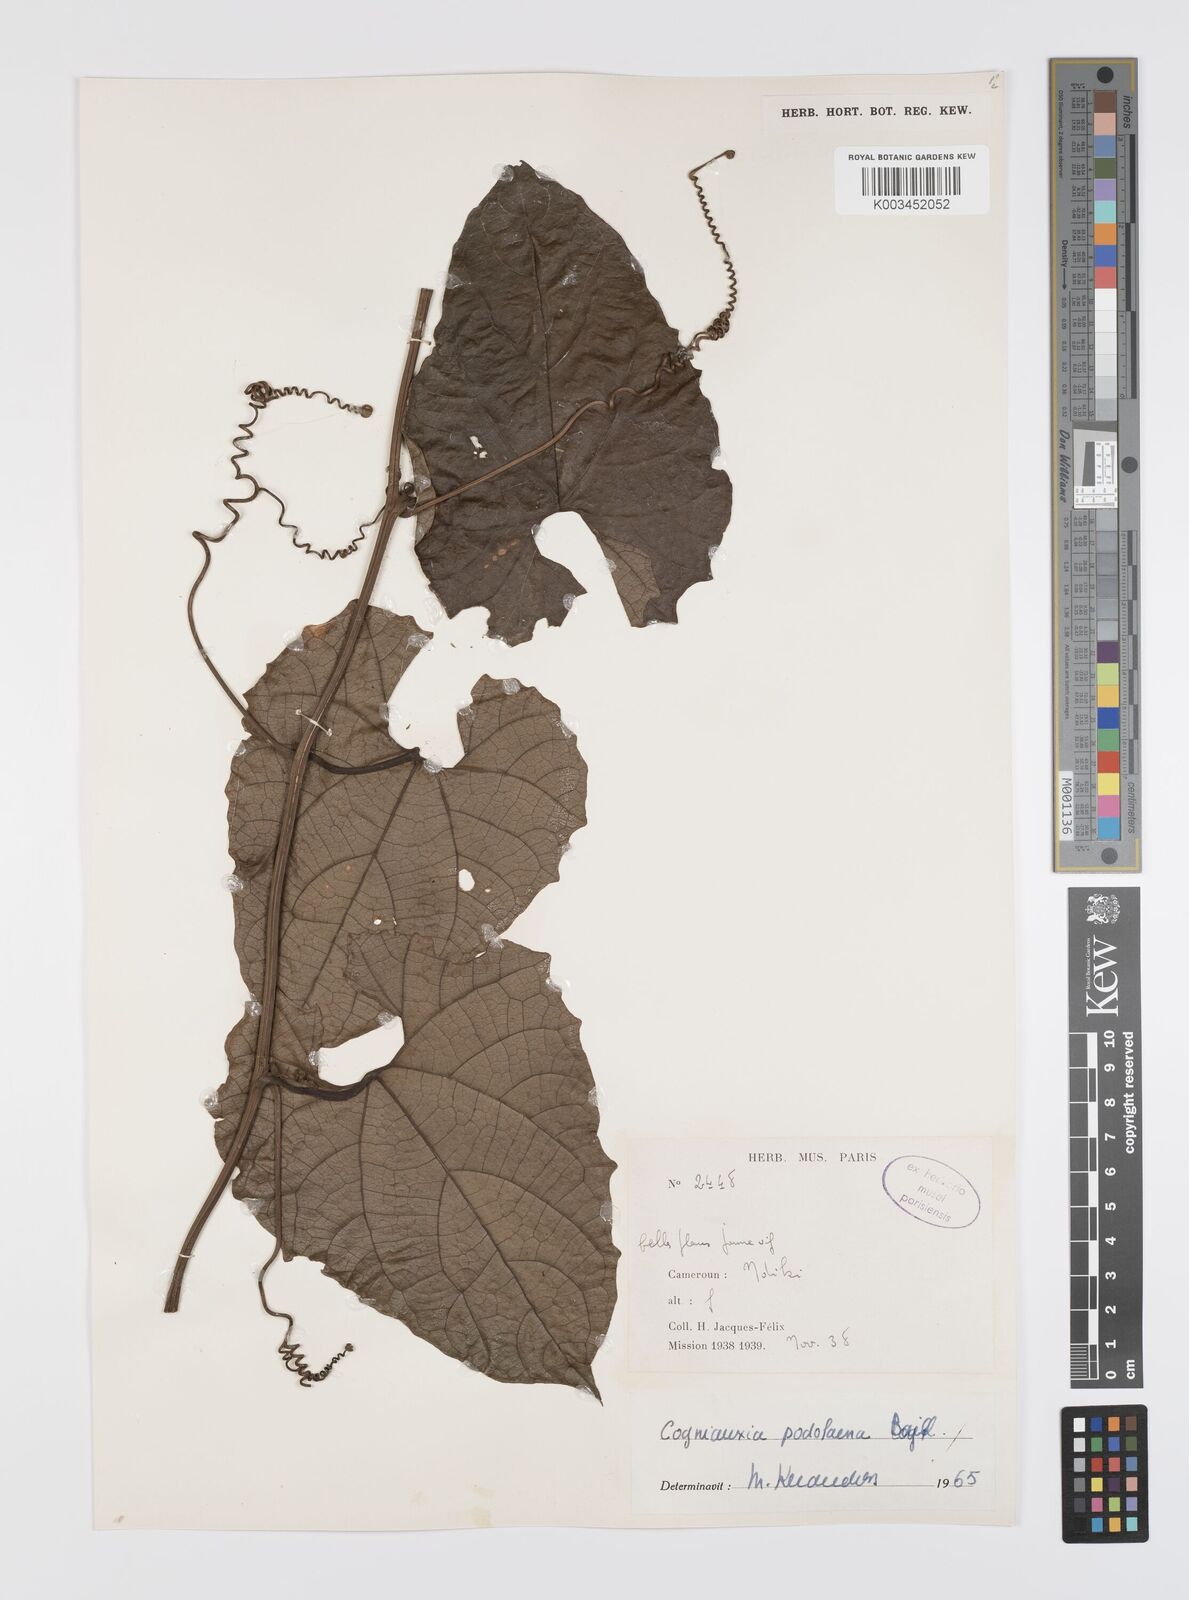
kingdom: Plantae
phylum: Tracheophyta
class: Magnoliopsida
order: Cucurbitales
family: Cucurbitaceae
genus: Cogniauxia
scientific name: Cogniauxia podolaena
